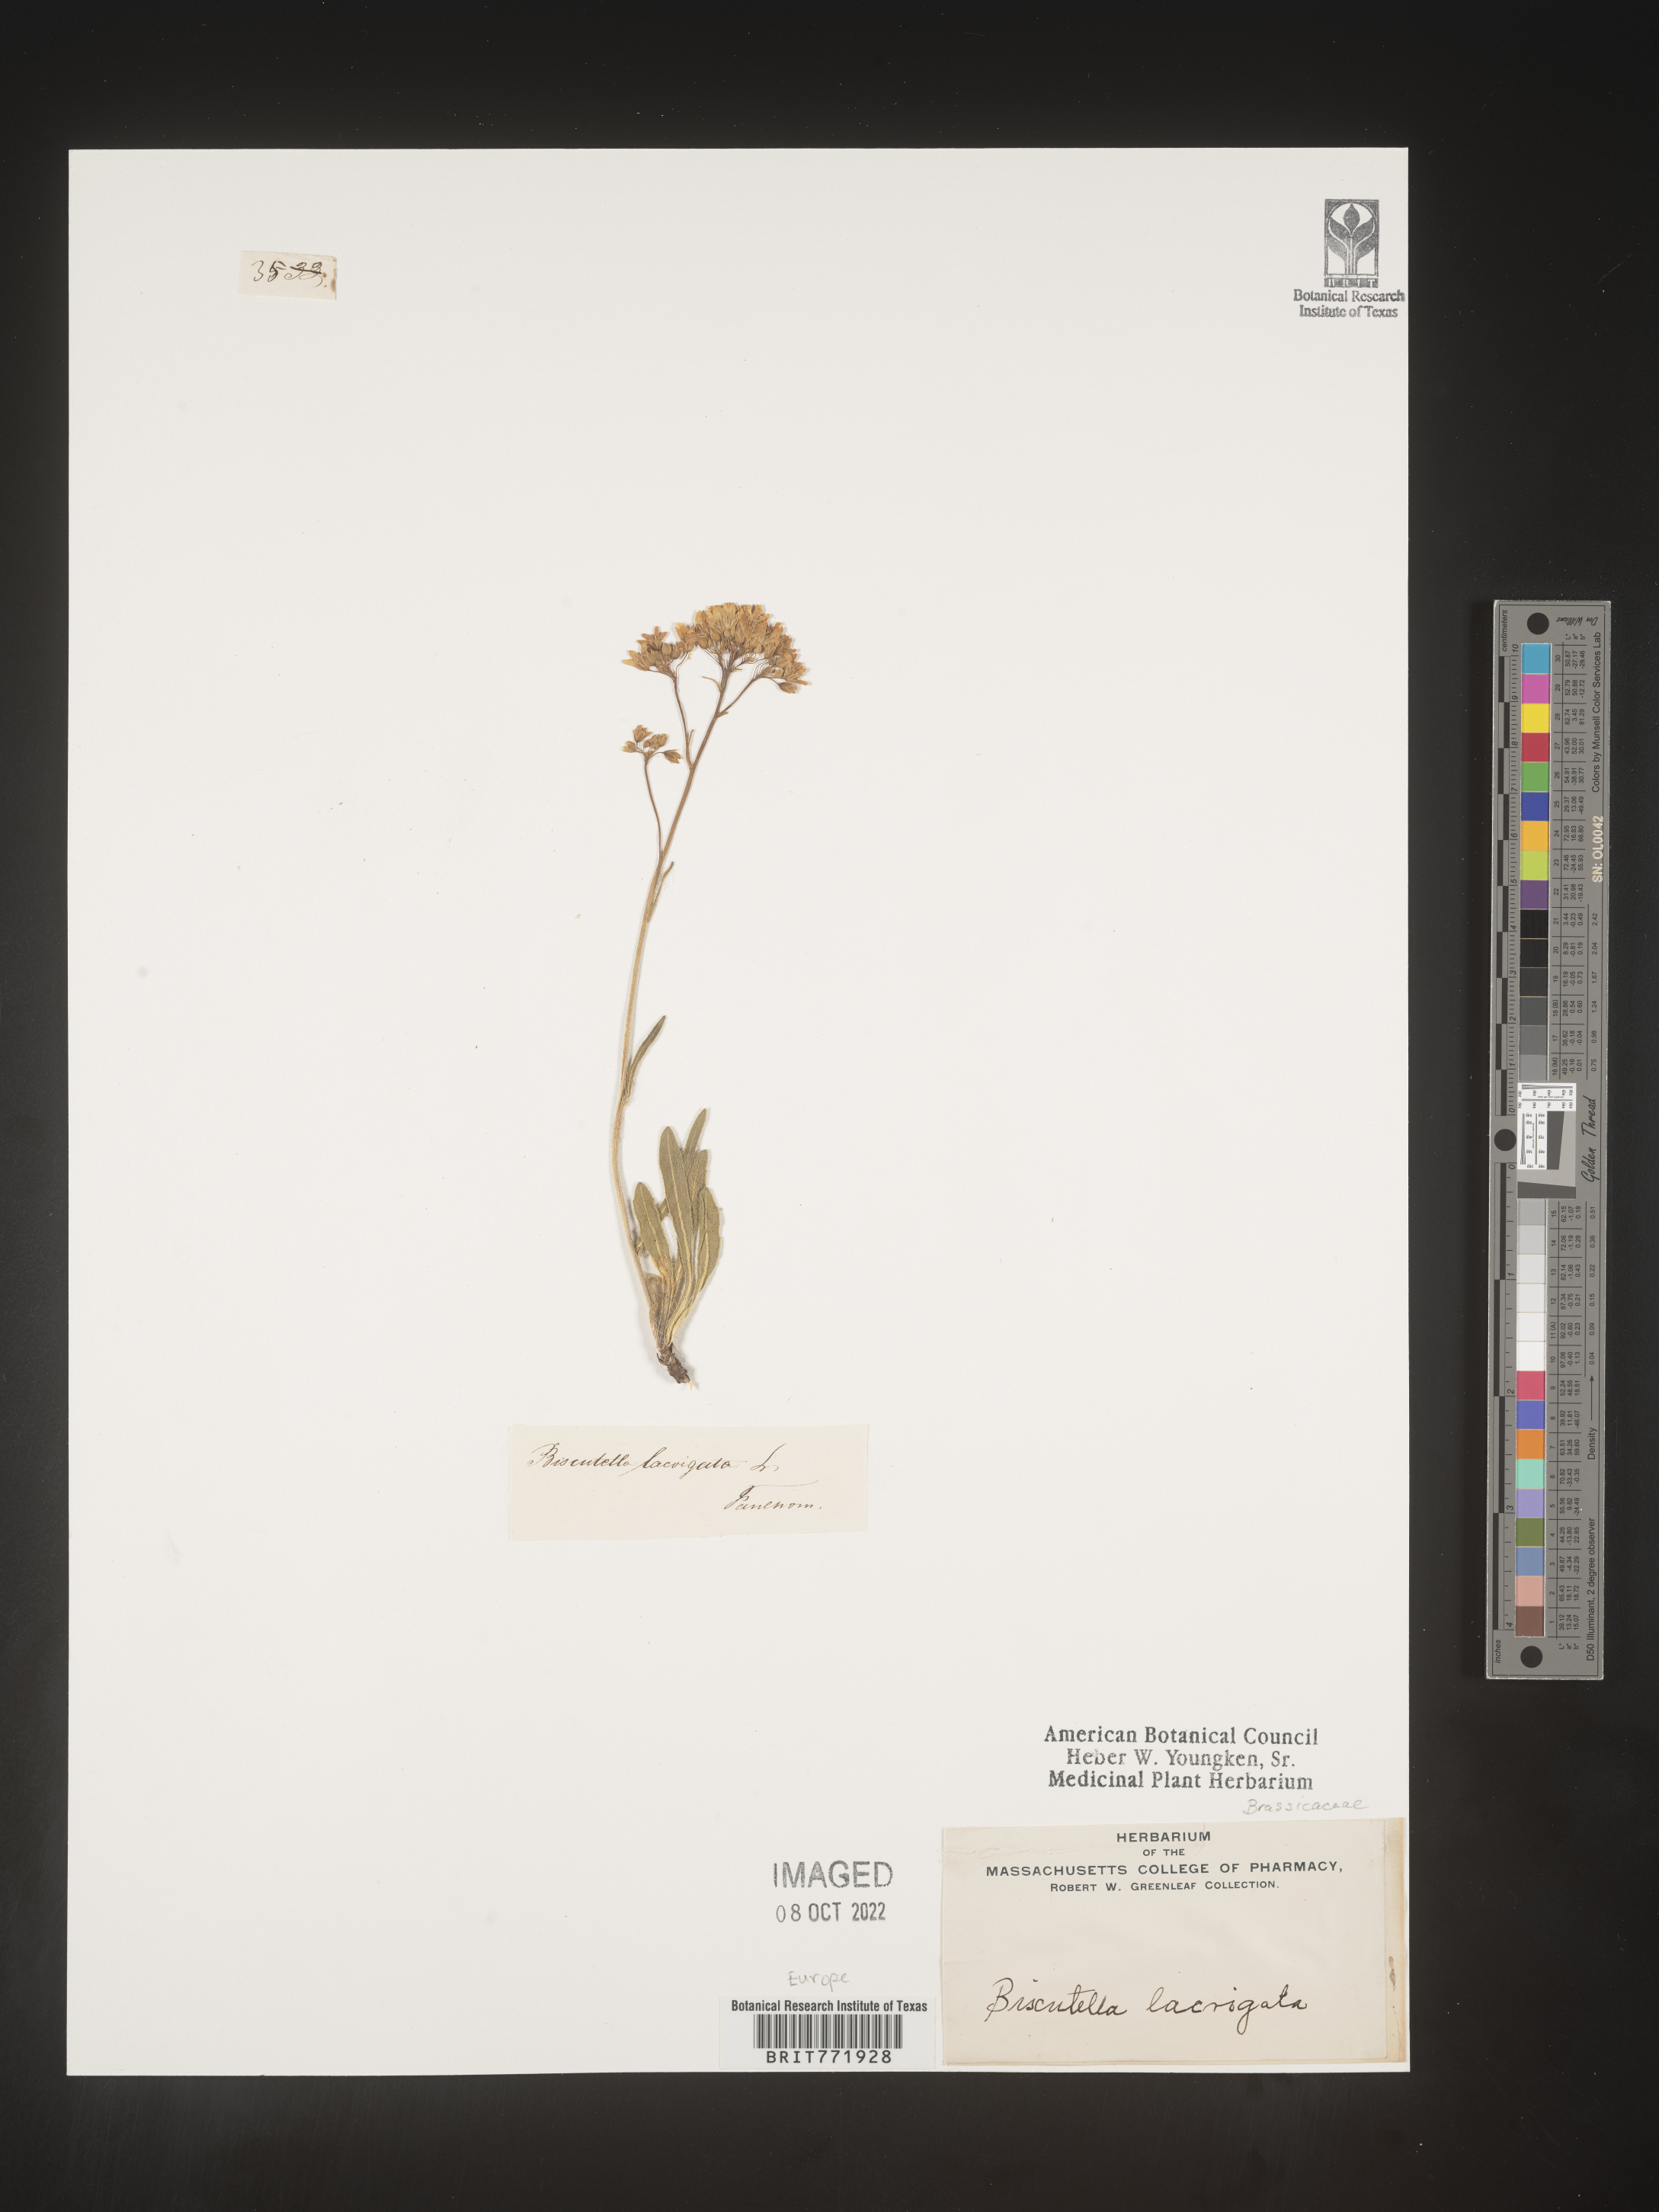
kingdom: Plantae
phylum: Tracheophyta
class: Magnoliopsida
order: Brassicales
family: Brassicaceae
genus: Biscutella
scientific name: Biscutella
